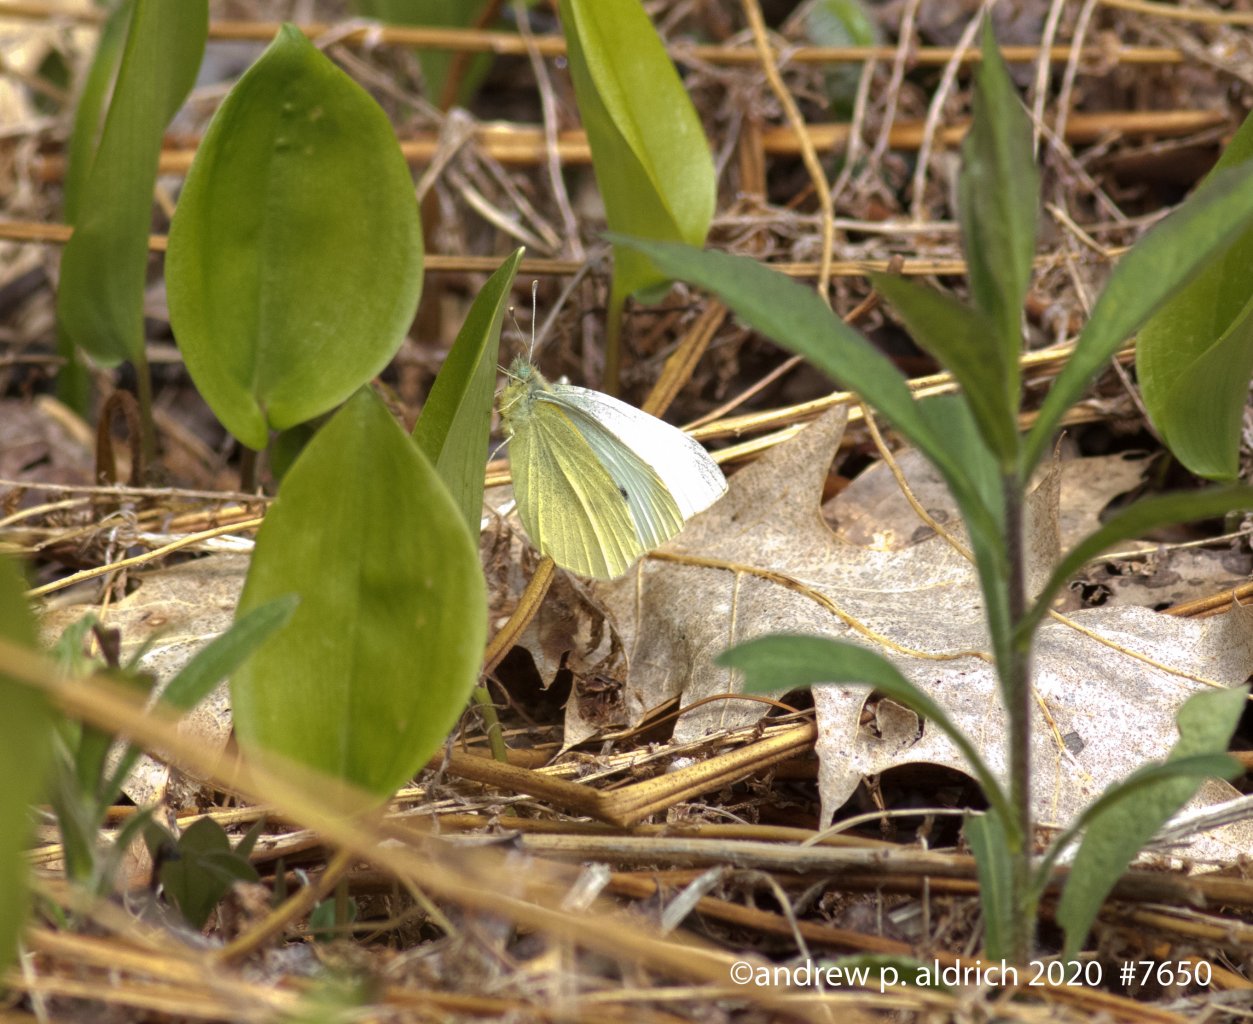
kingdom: Animalia
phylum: Arthropoda
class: Insecta
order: Lepidoptera
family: Pieridae
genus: Pieris
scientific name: Pieris rapae
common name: Cabbage White
